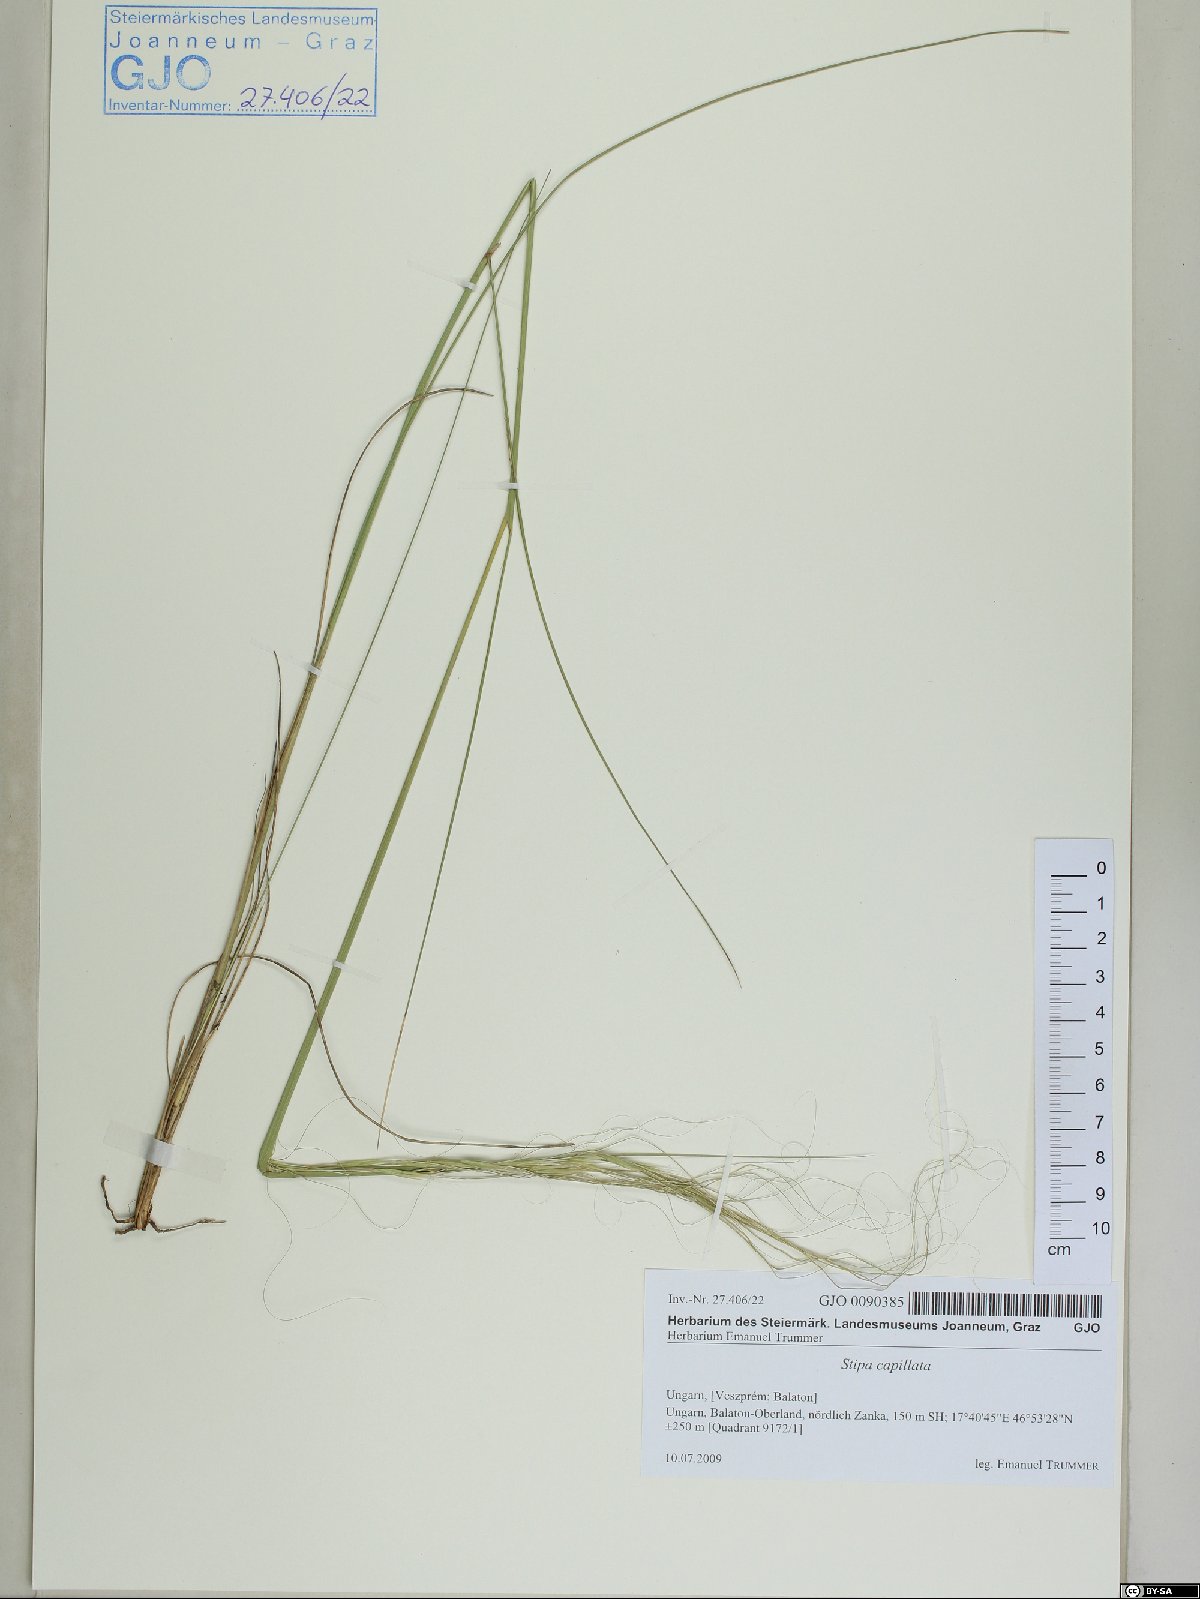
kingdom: Plantae
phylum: Tracheophyta
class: Liliopsida
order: Poales
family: Poaceae
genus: Stipa
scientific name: Stipa capillata
